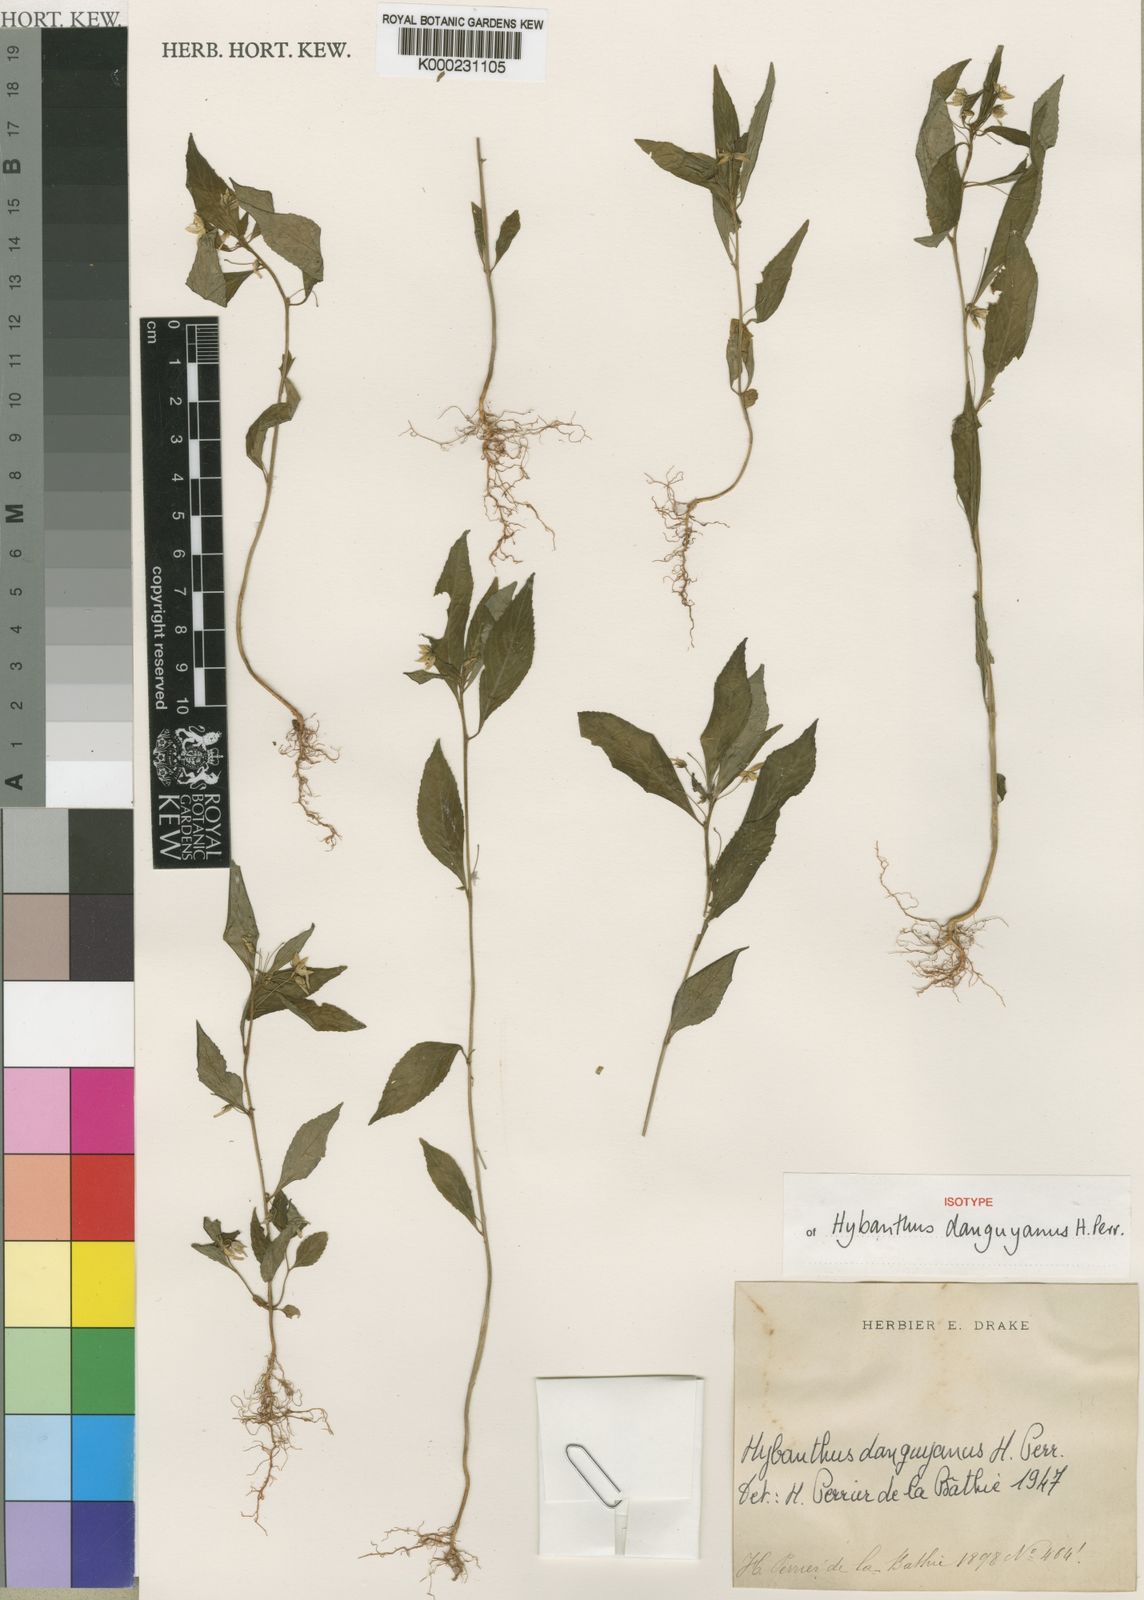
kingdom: Plantae
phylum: Tracheophyta
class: Magnoliopsida
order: Malpighiales
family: Violaceae
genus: Pigea
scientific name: Pigea danguyana
